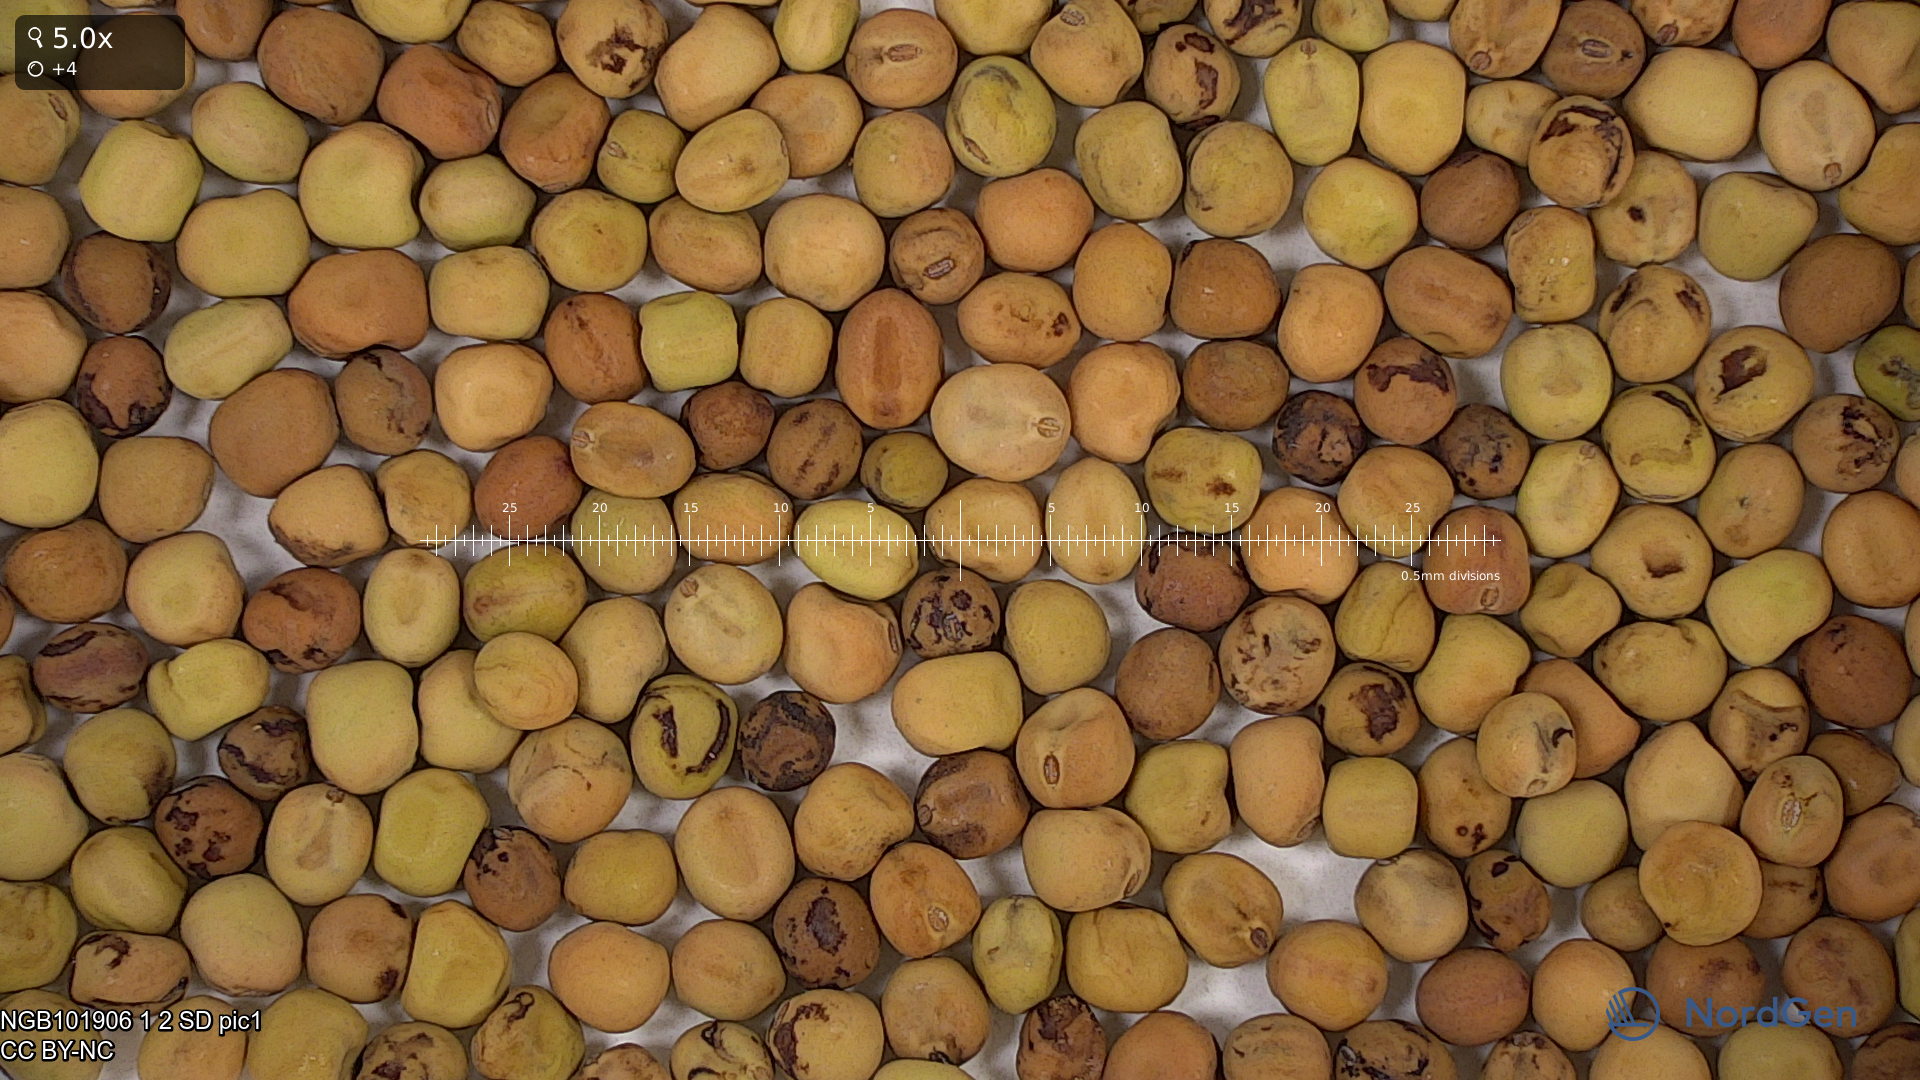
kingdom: Plantae
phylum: Tracheophyta
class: Magnoliopsida
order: Fabales
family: Fabaceae
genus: Lathyrus
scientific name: Lathyrus oleraceus
